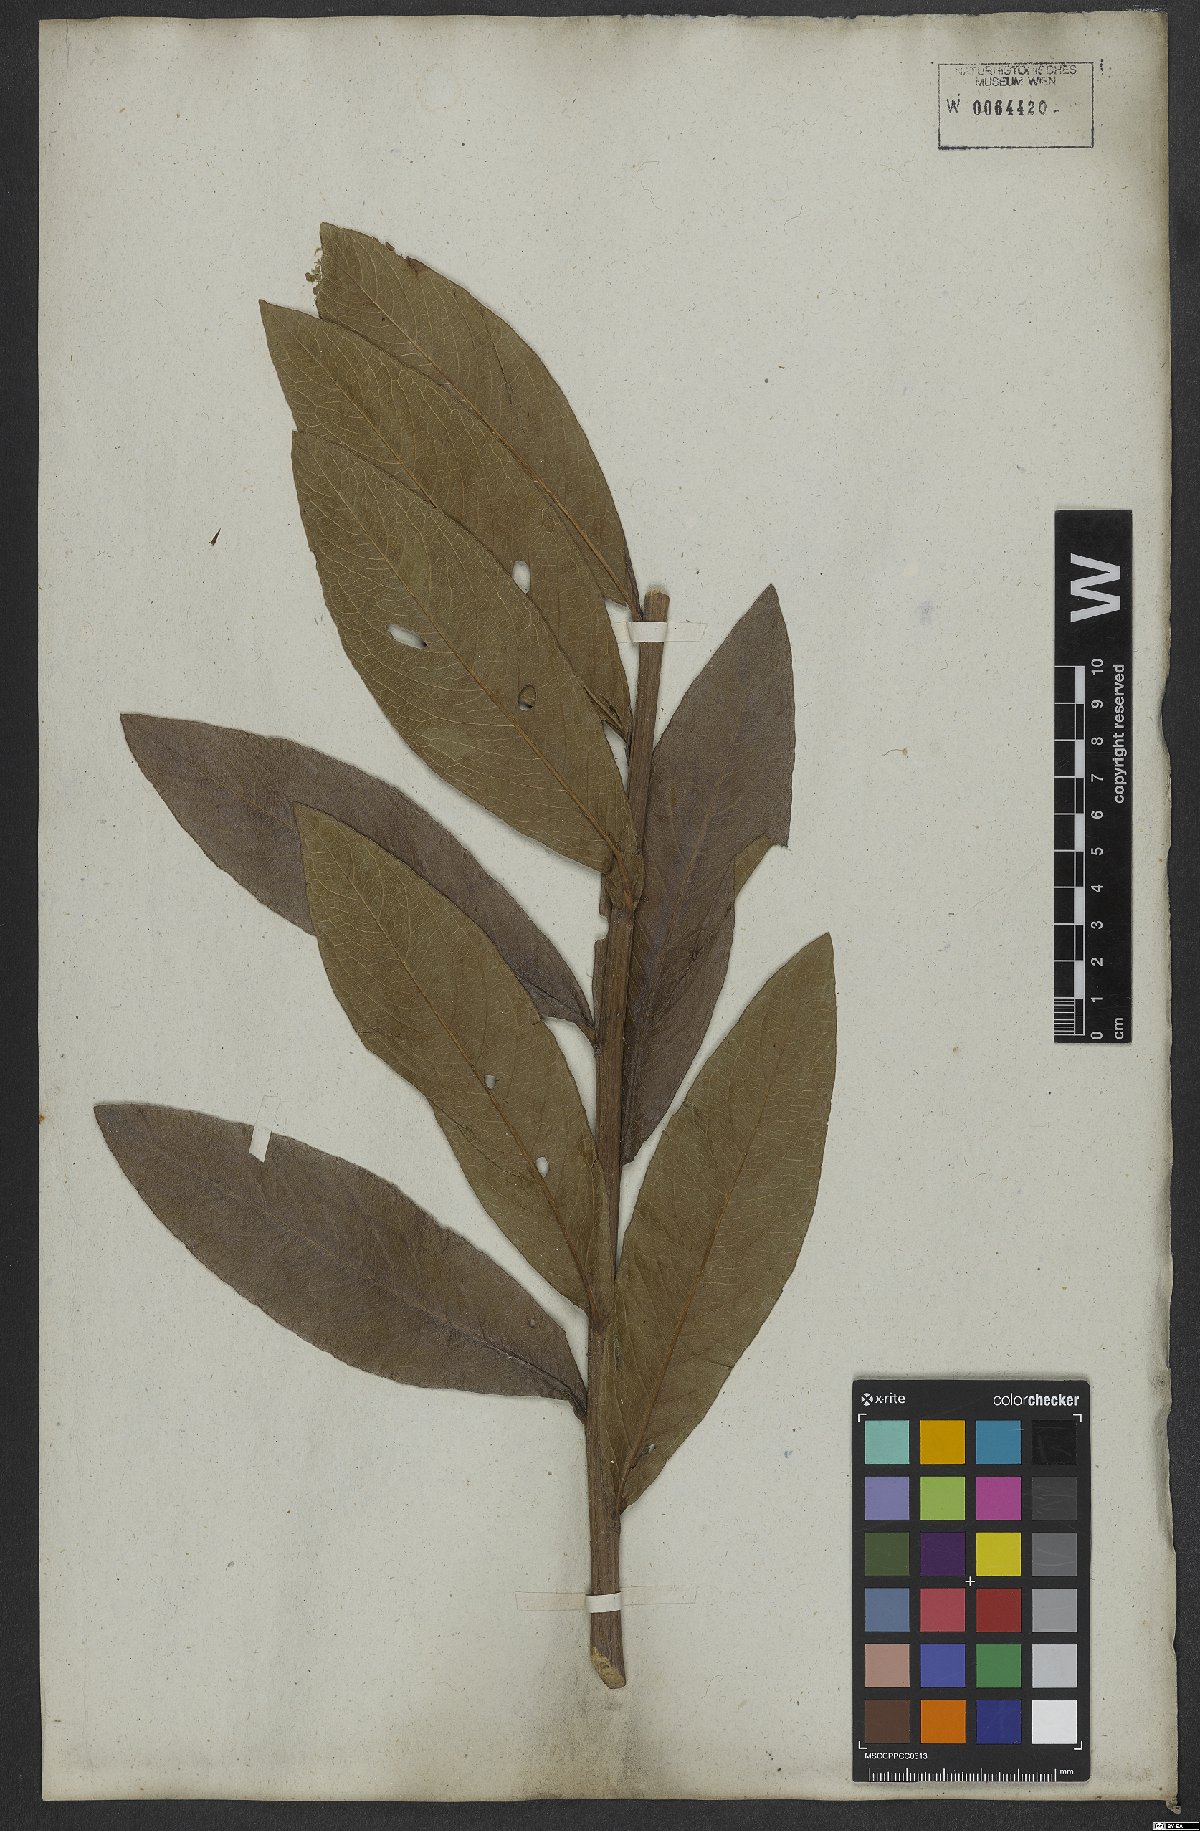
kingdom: Plantae
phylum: Tracheophyta
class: Magnoliopsida
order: Asterales
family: Asteraceae
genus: Lessingianthus
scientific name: Lessingianthus glabratus
